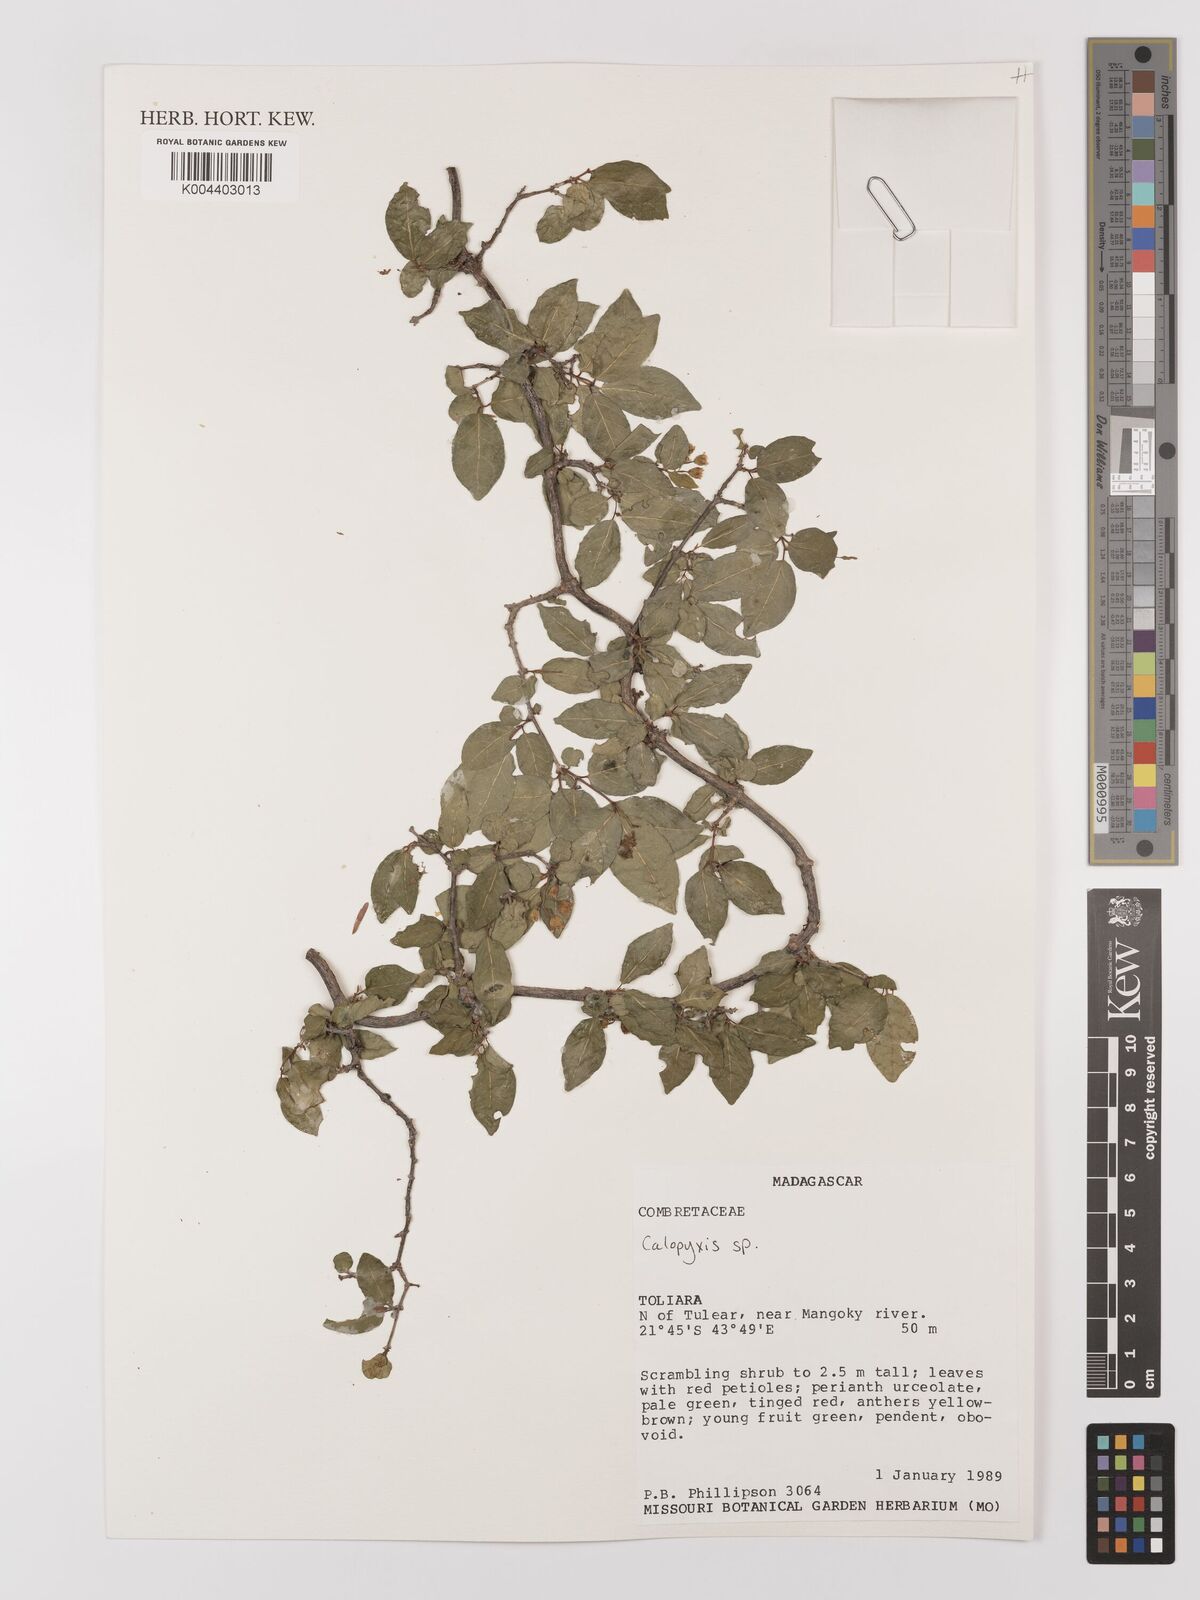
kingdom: Plantae
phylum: Tracheophyta
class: Magnoliopsida
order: Myrtales
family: Combretaceae
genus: Combretum
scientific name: Combretum
